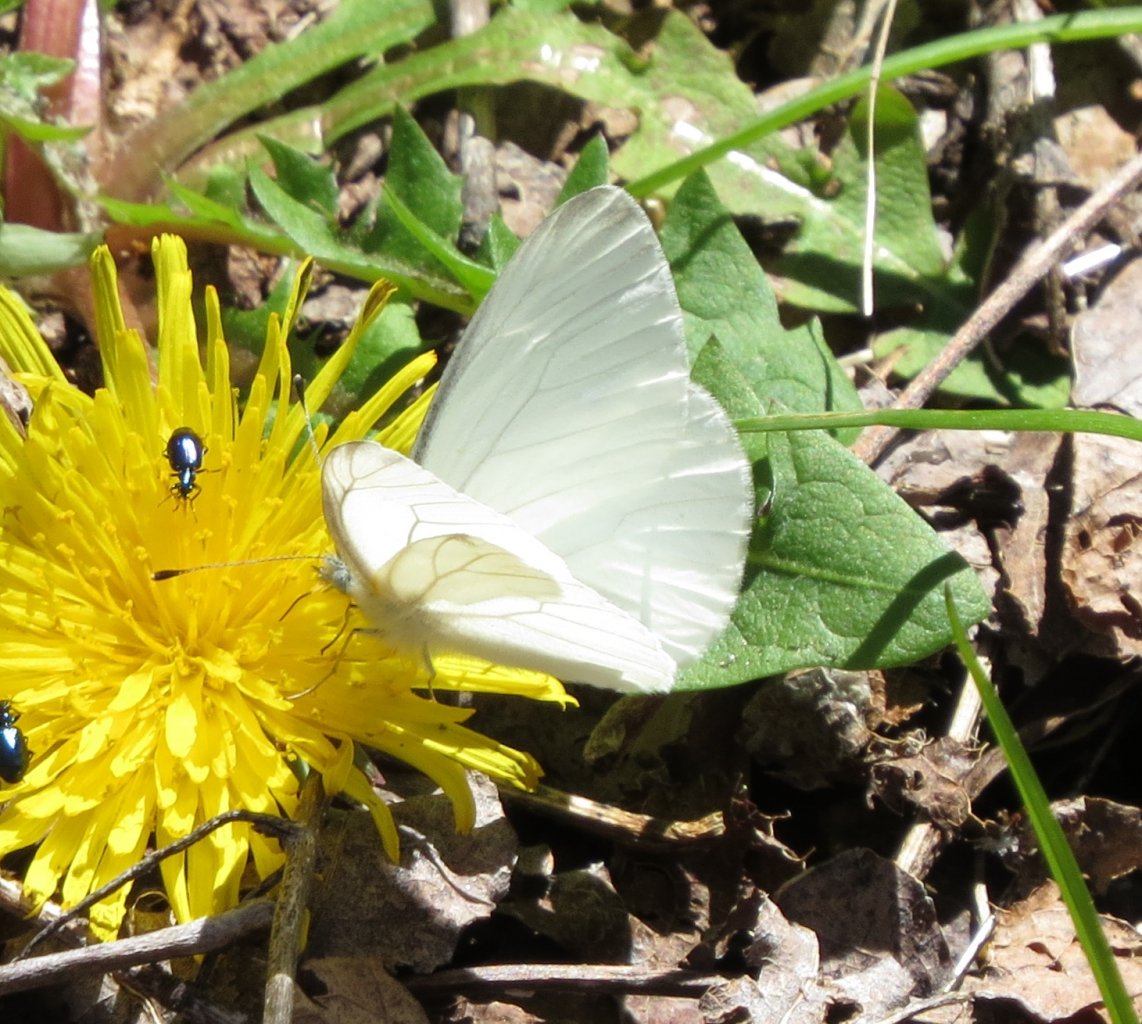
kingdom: Animalia
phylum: Arthropoda
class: Insecta
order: Lepidoptera
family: Pieridae
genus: Pieris
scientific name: Pieris virginiensis
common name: West Virginia White
